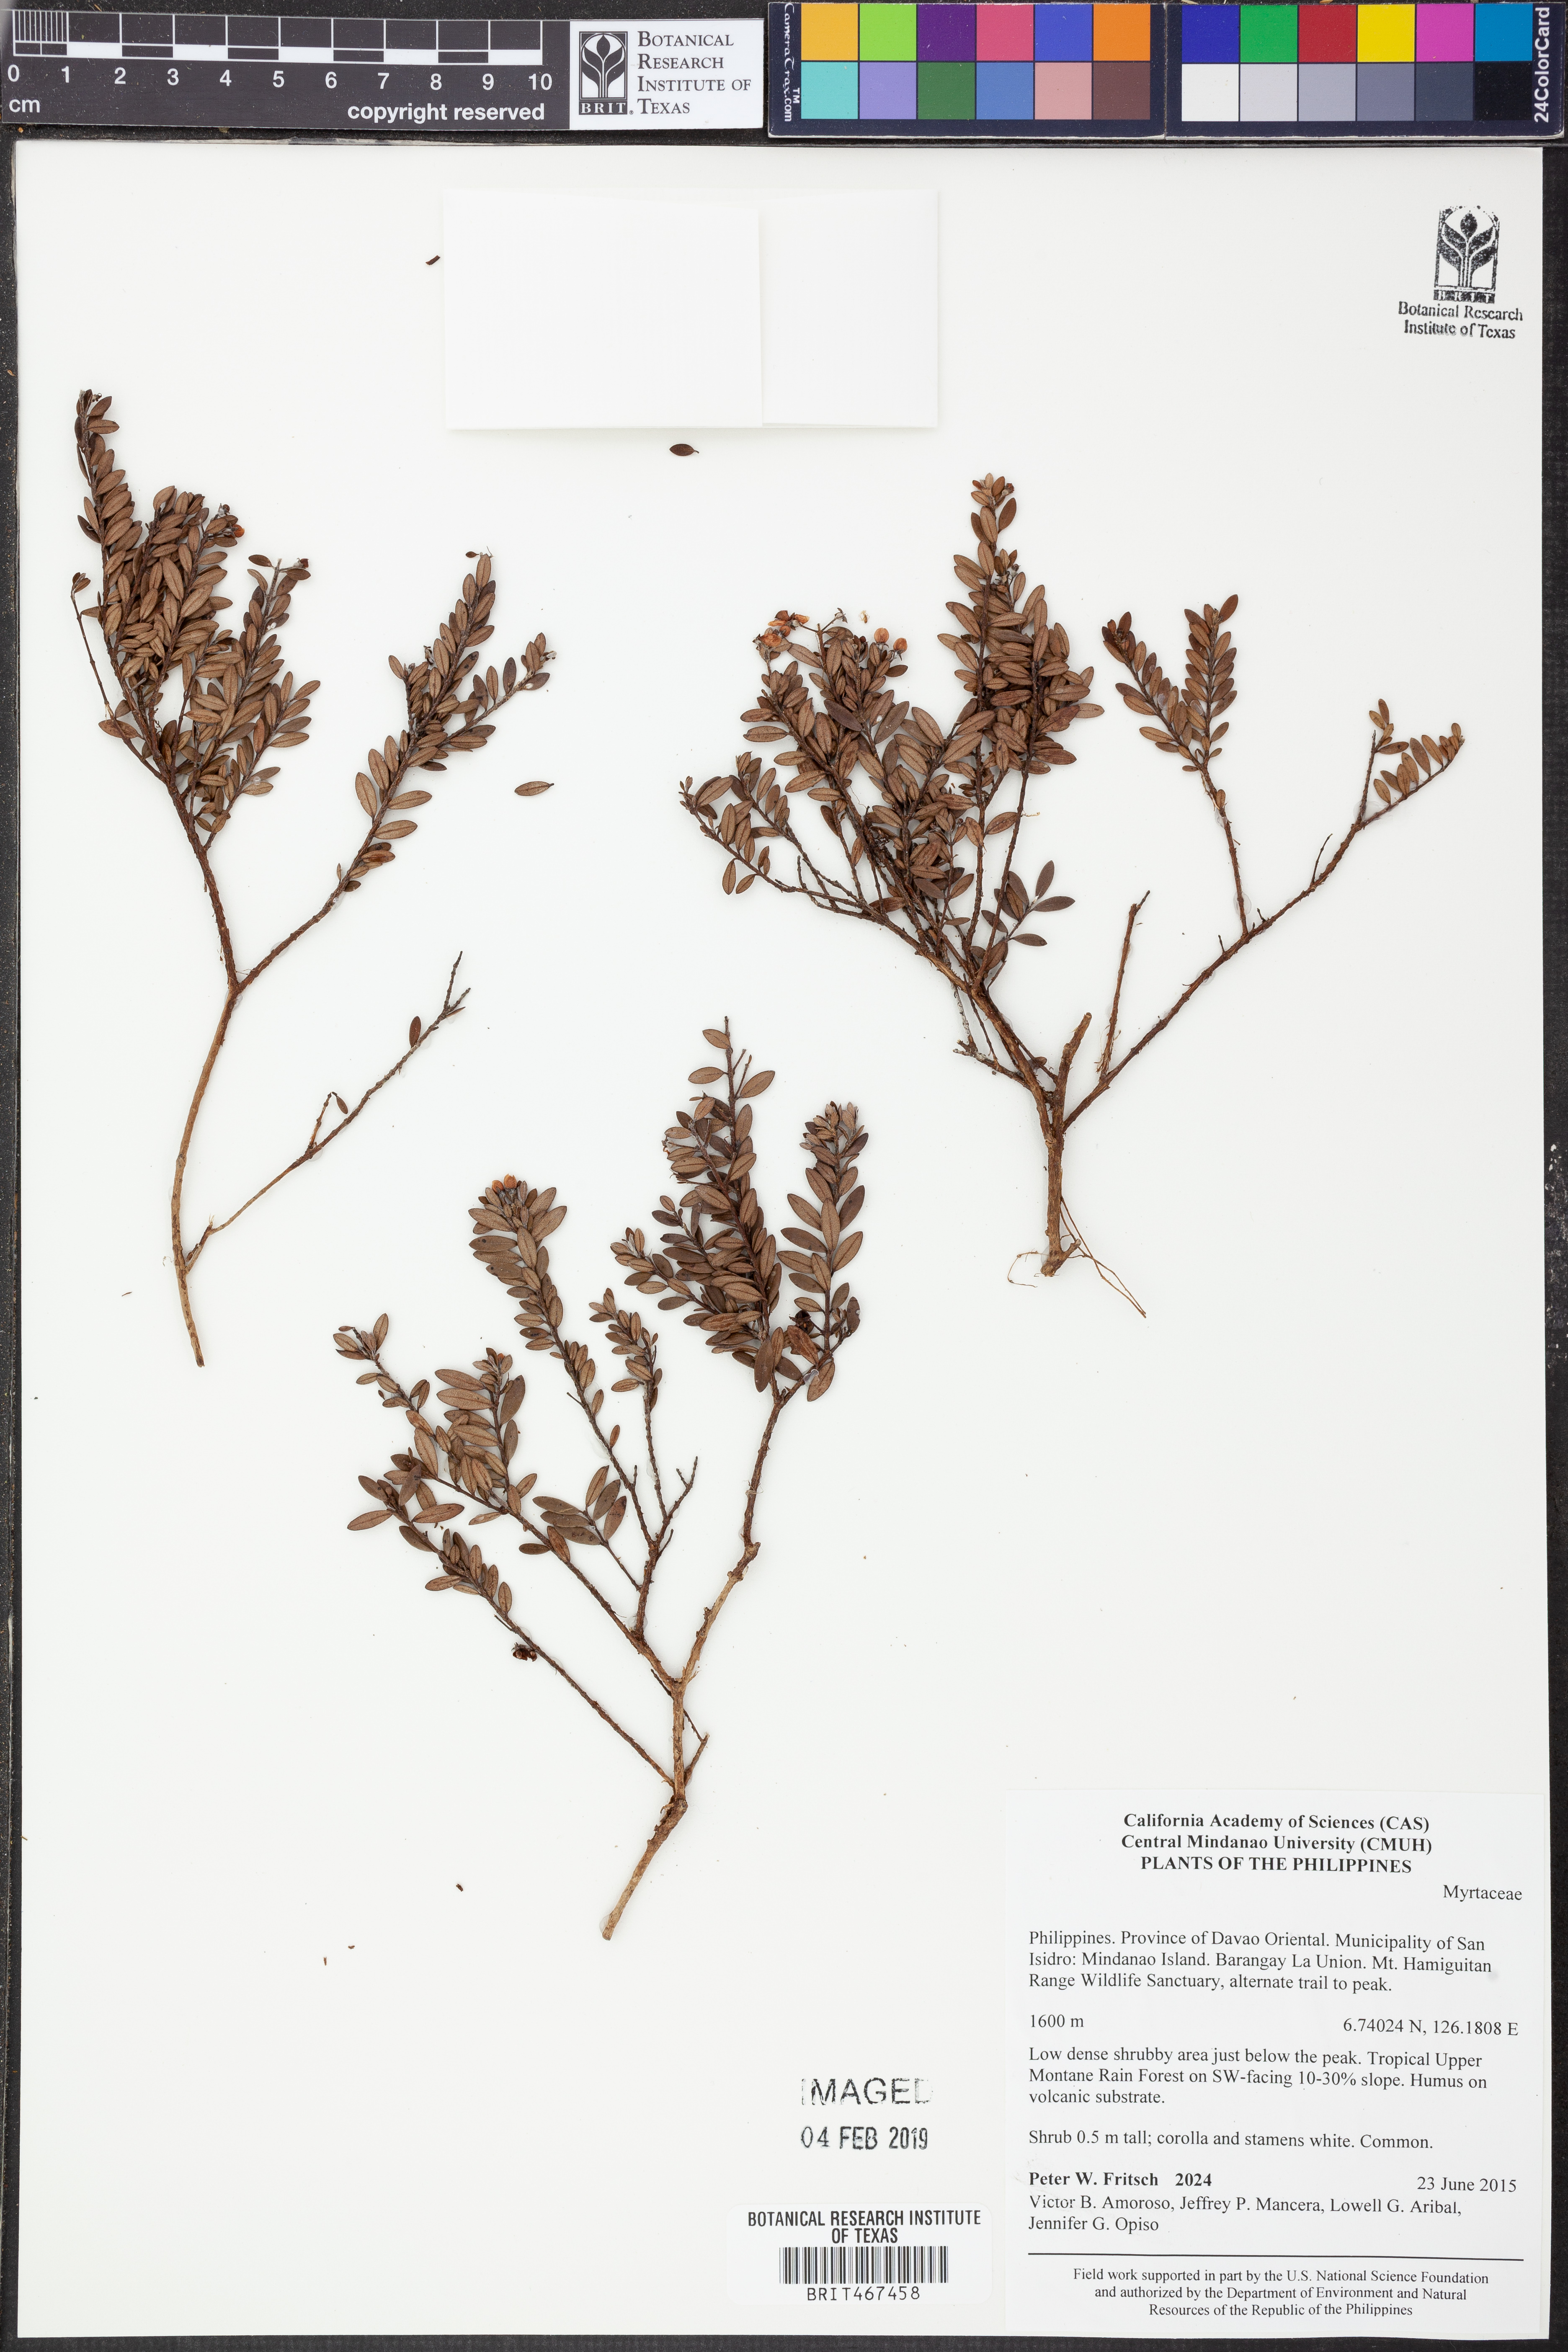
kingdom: Plantae
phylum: Tracheophyta
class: Magnoliopsida
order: Myrtales
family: Myrtaceae
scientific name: Myrtaceae
